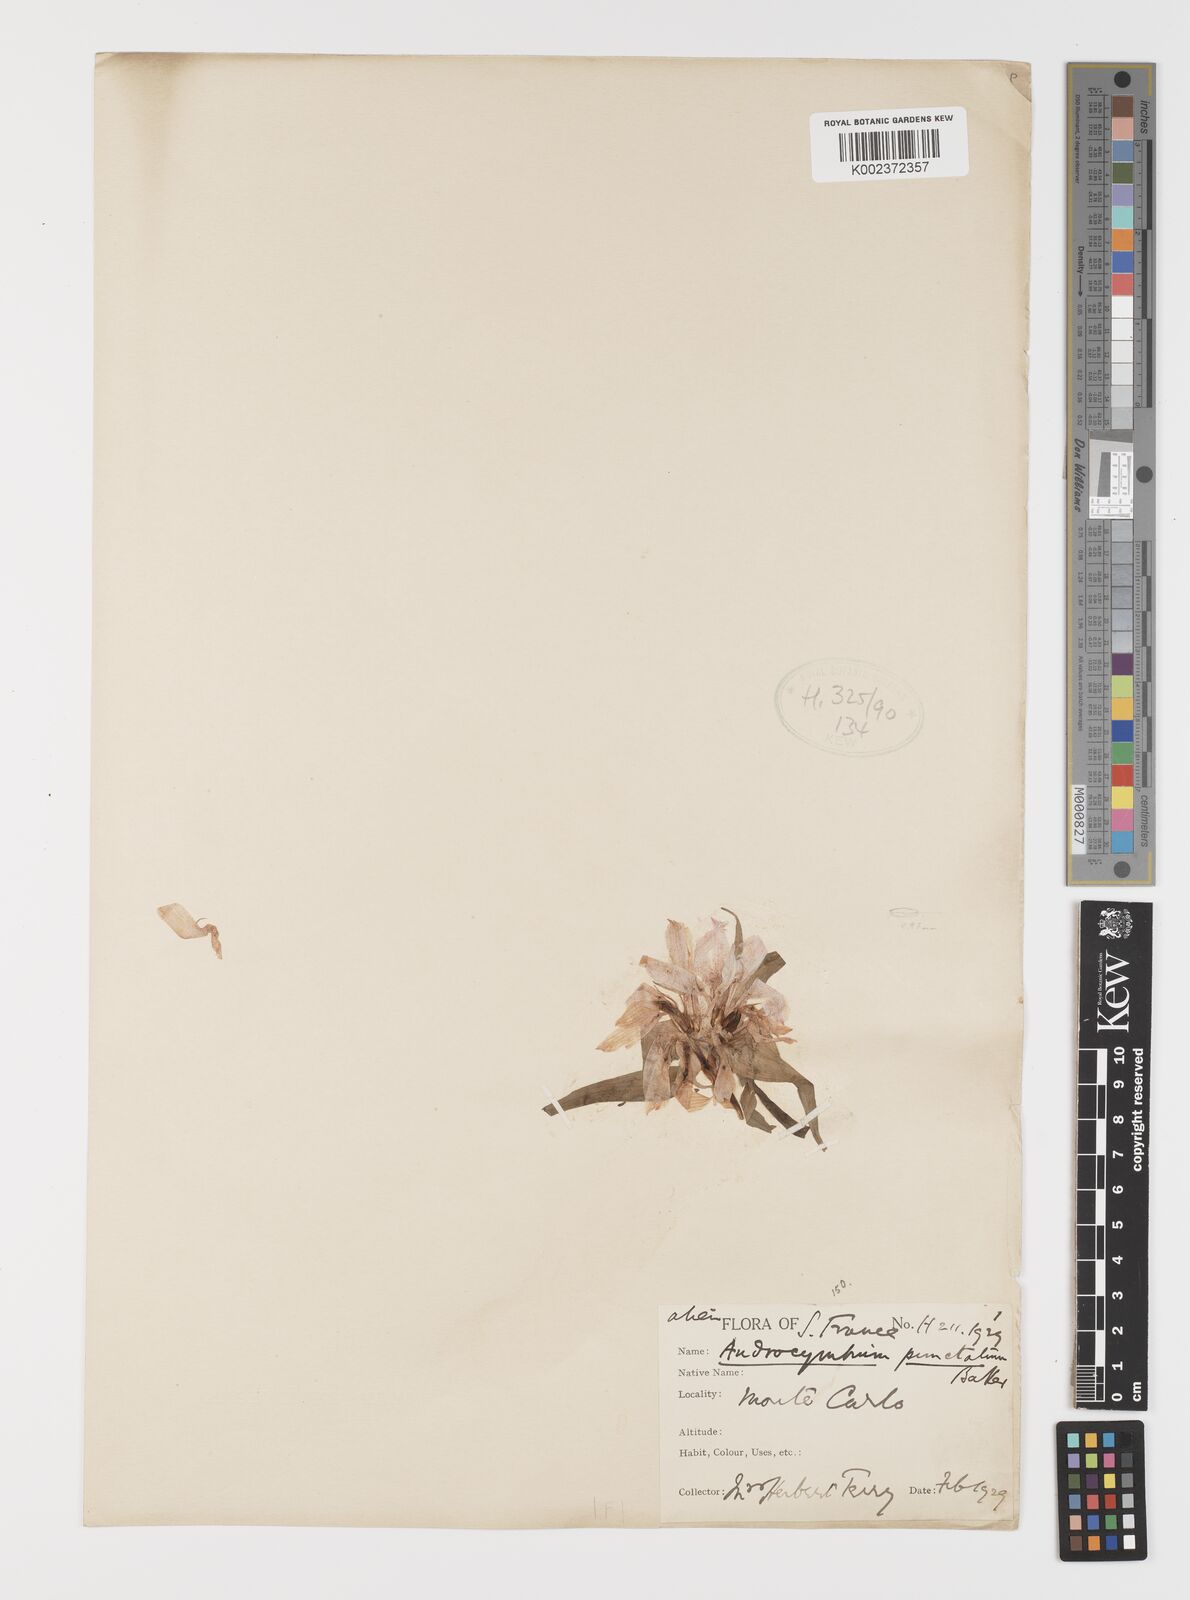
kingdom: Plantae
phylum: Tracheophyta
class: Liliopsida
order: Liliales
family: Colchicaceae
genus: Colchicum
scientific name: Colchicum capense
